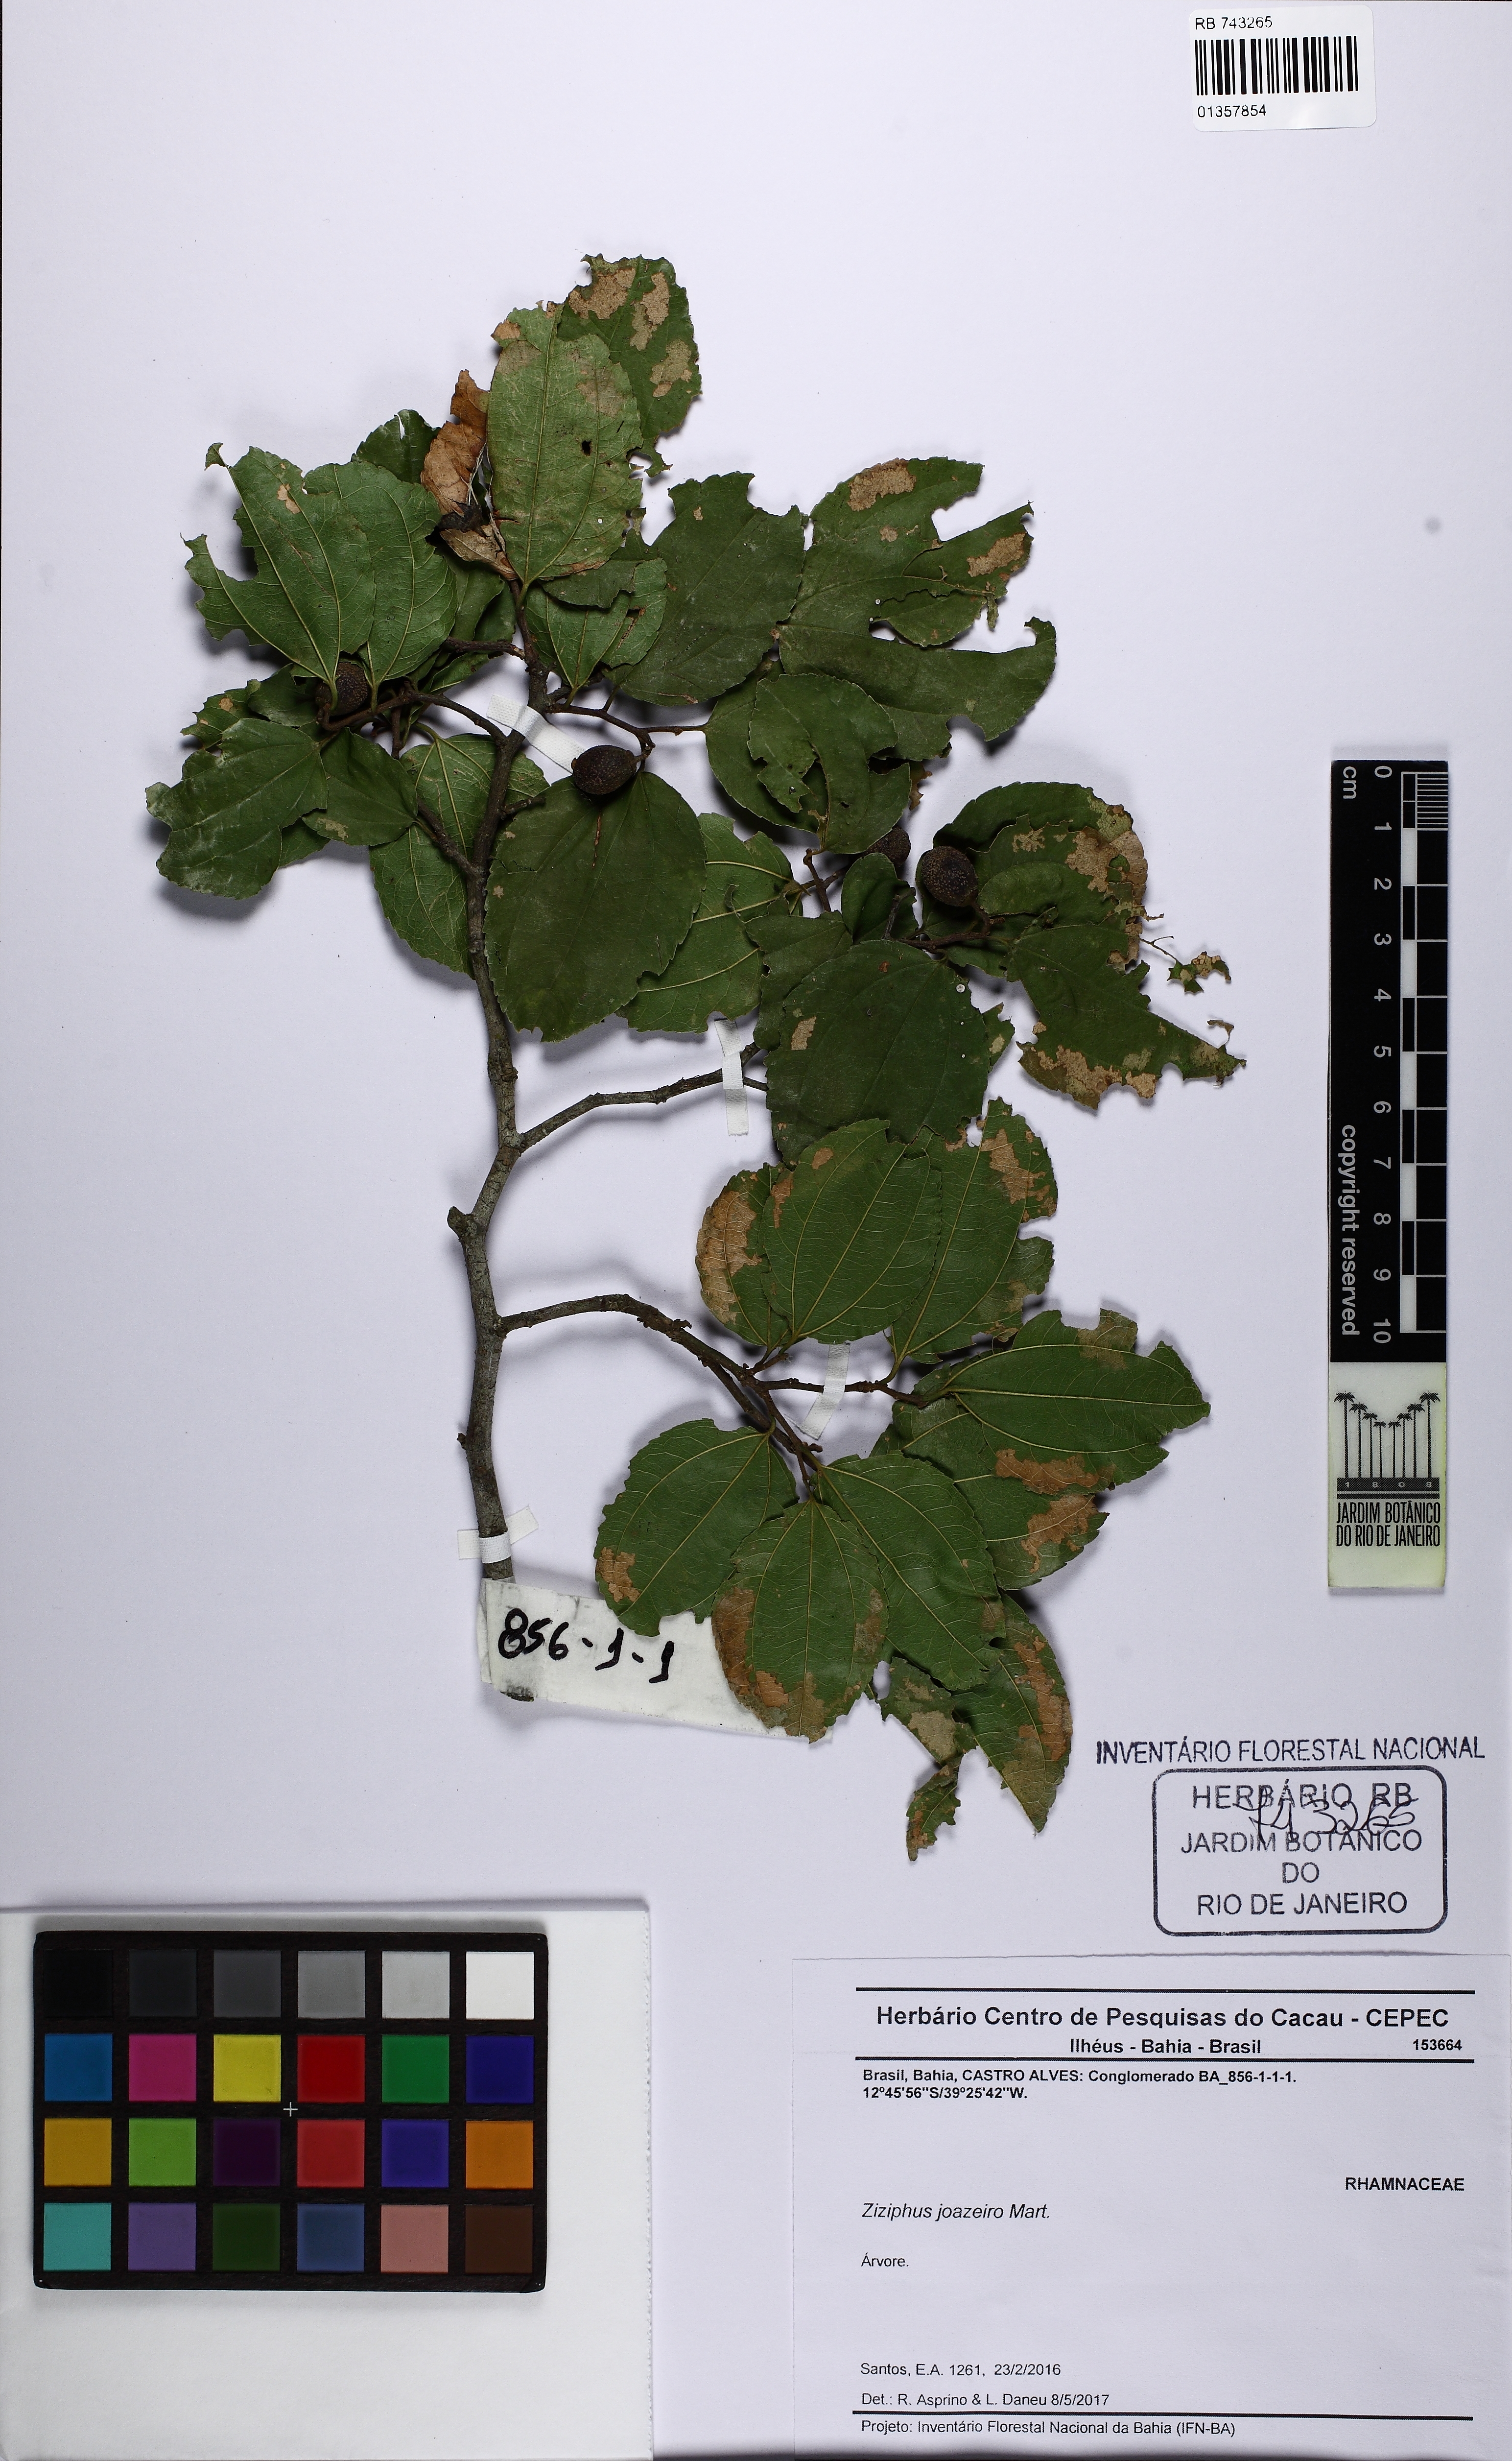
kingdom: Plantae
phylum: Tracheophyta
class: Magnoliopsida
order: Rosales
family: Rhamnaceae
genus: Sarcomphalus
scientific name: Sarcomphalus joazeiro
